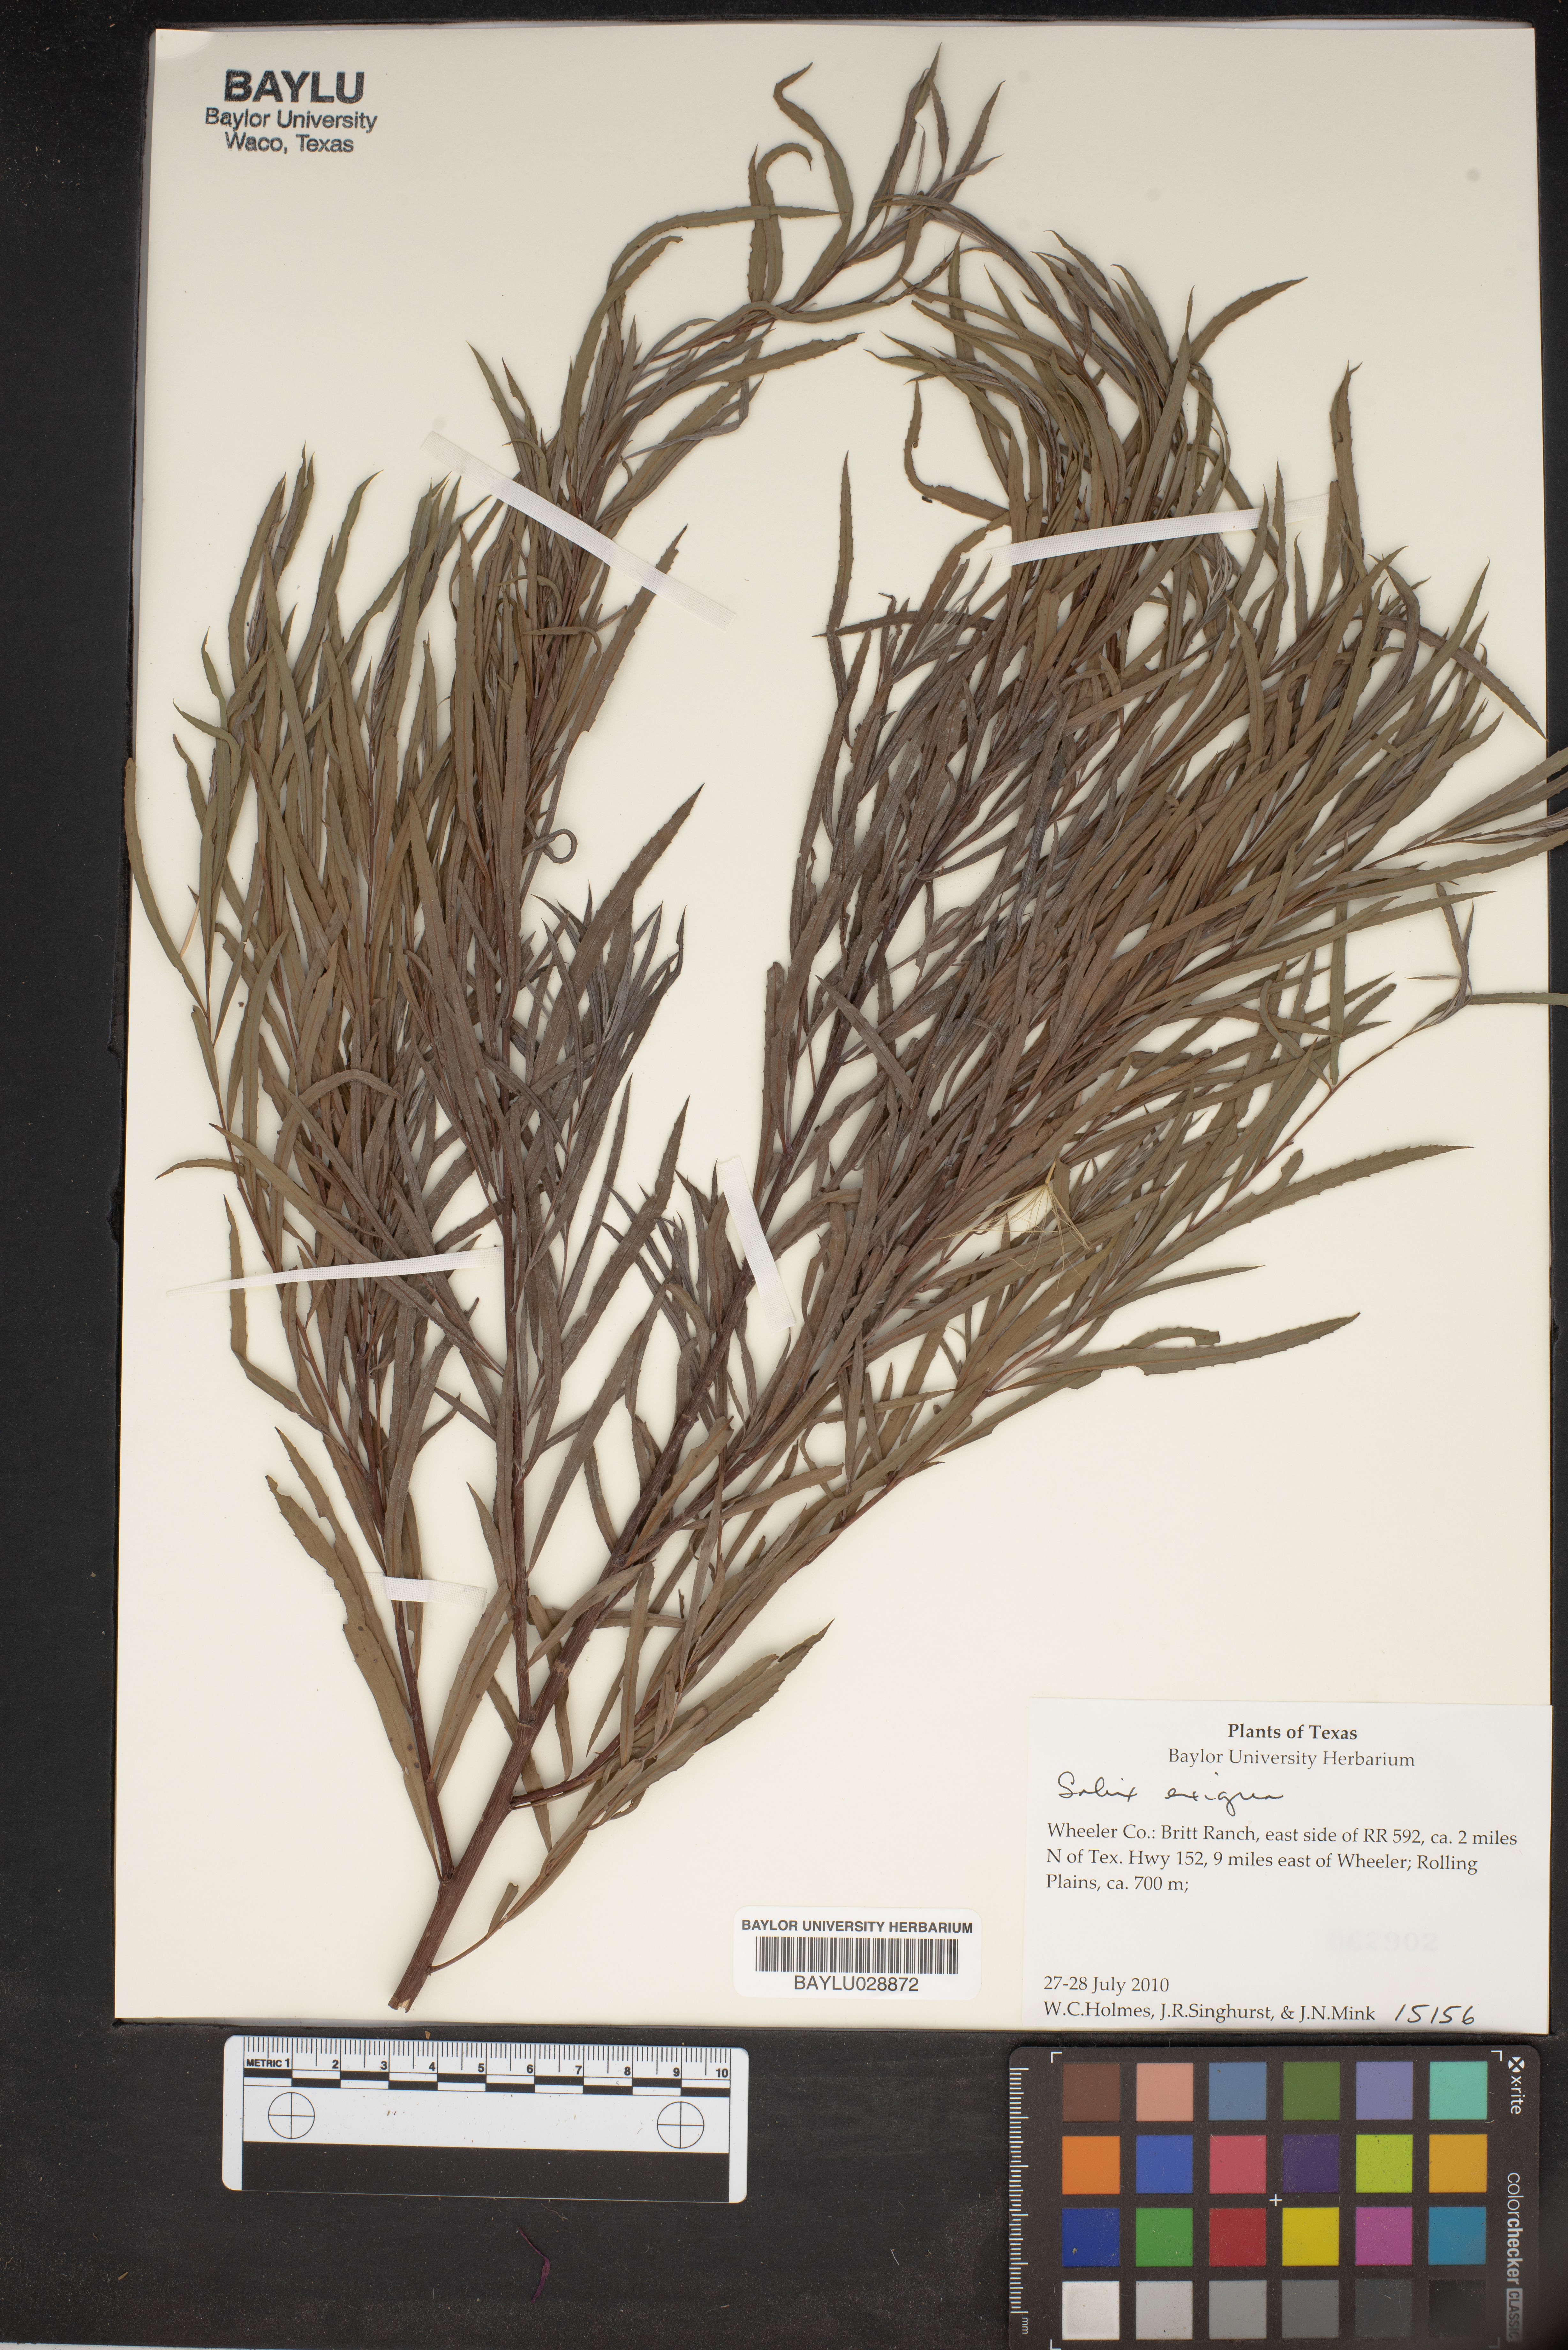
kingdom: Plantae
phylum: Tracheophyta
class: Magnoliopsida
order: Malpighiales
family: Salicaceae
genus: Salix
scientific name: Salix exigua
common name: Coyote willow
